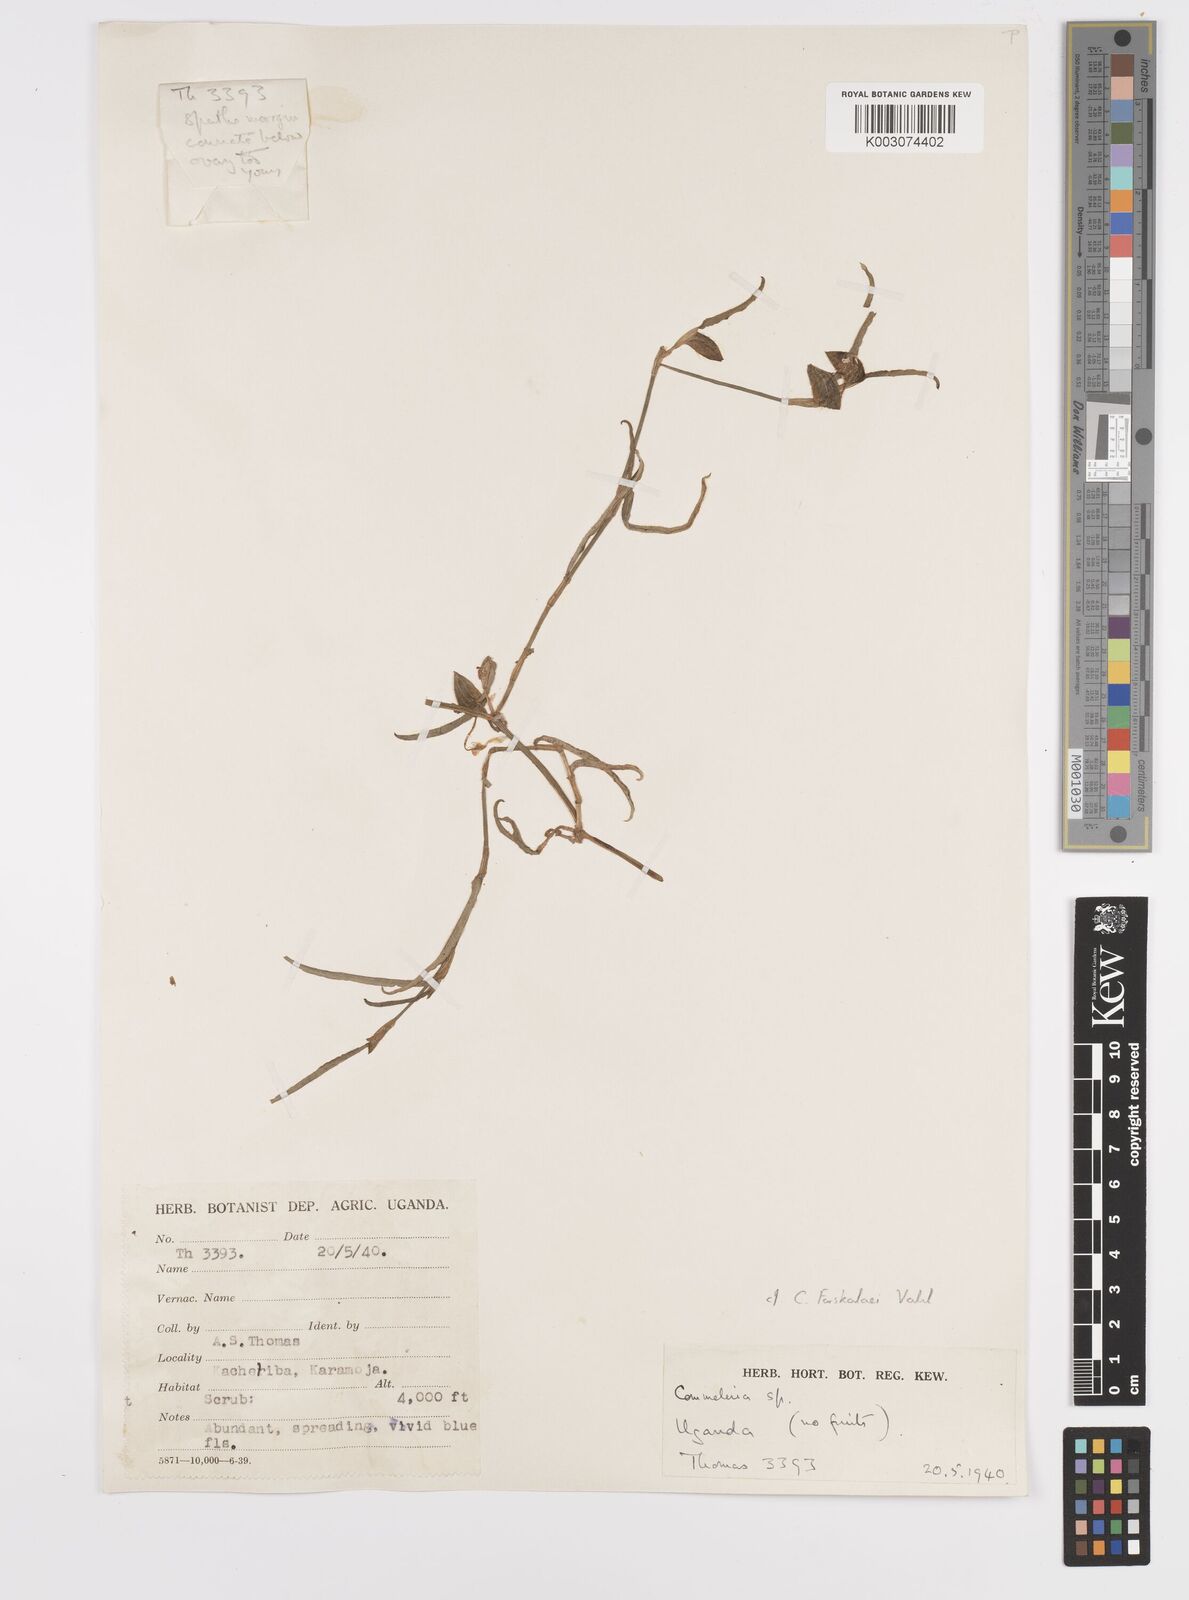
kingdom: Plantae
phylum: Tracheophyta
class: Liliopsida
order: Commelinales
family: Commelinaceae
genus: Commelina
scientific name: Commelina forskaolii
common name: Rat's ear
